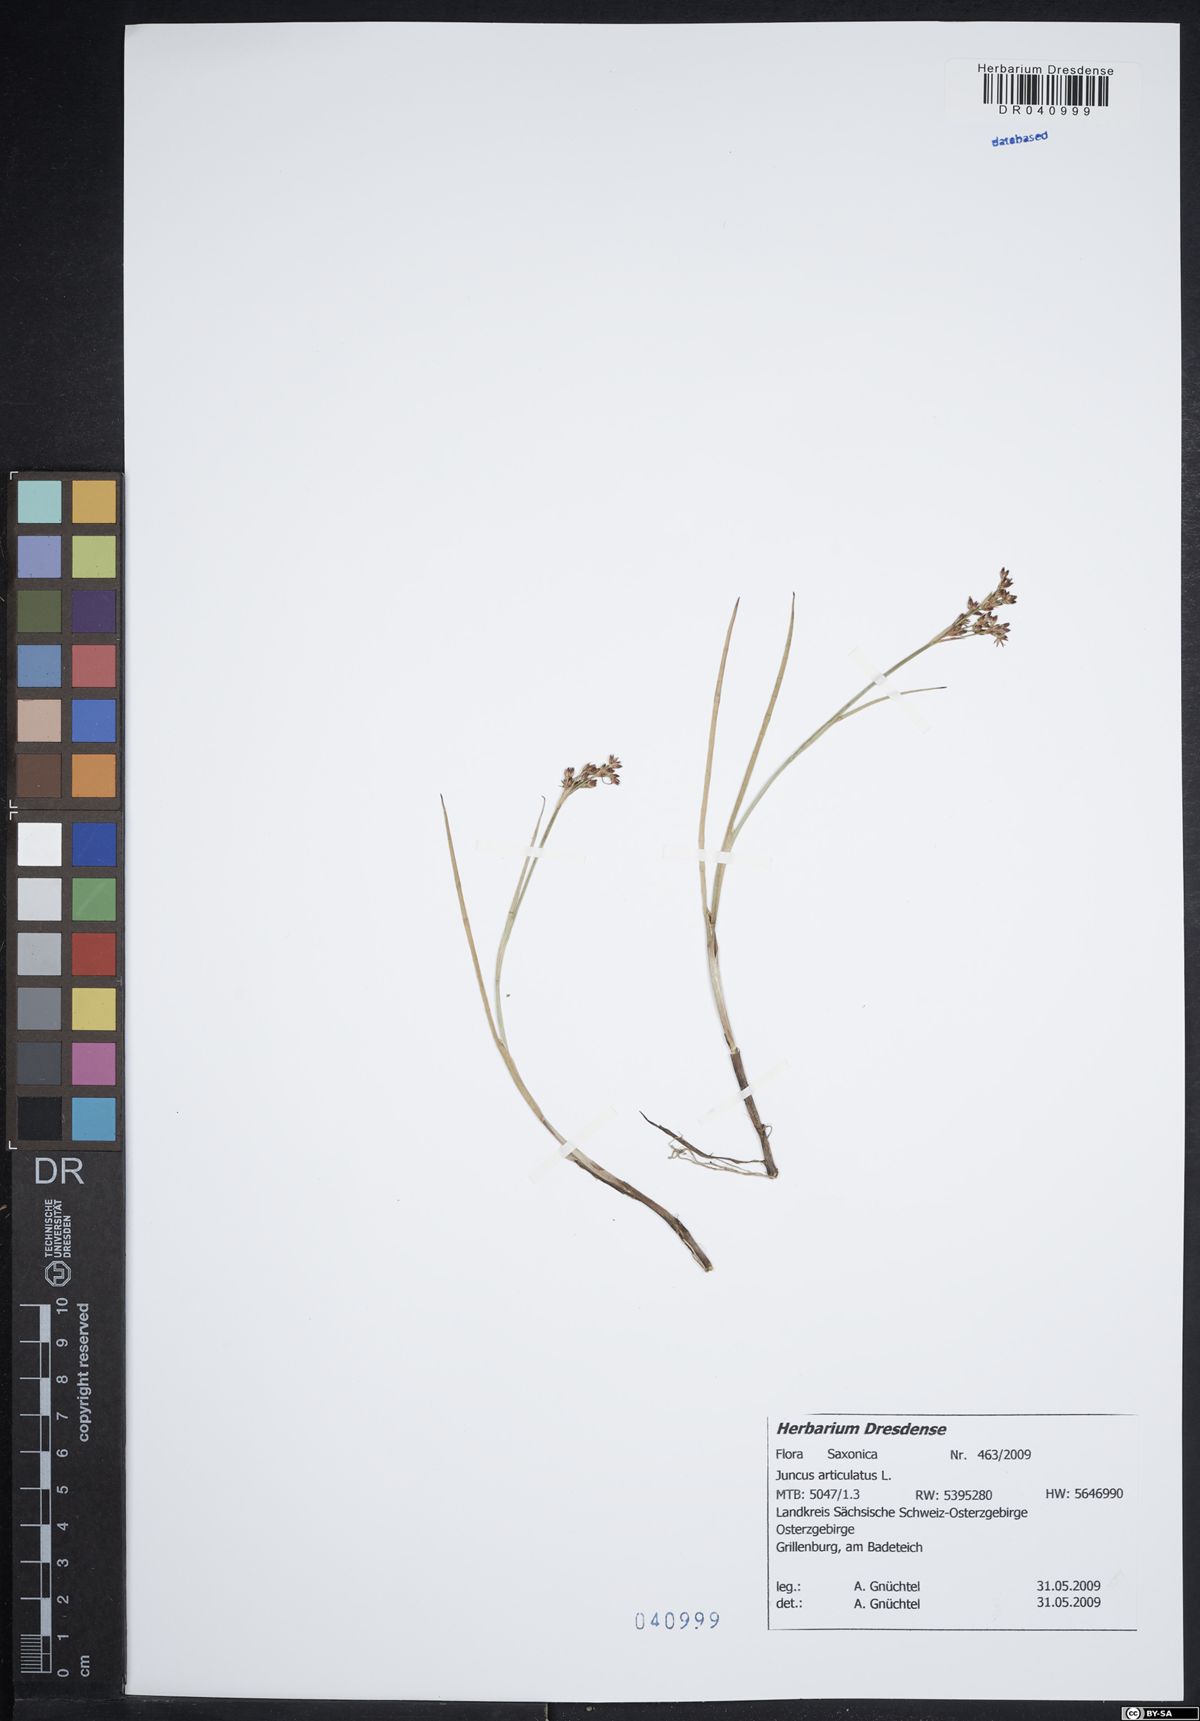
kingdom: Plantae
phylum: Tracheophyta
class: Liliopsida
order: Poales
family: Juncaceae
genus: Juncus
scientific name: Juncus articulatus
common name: Jointed rush
